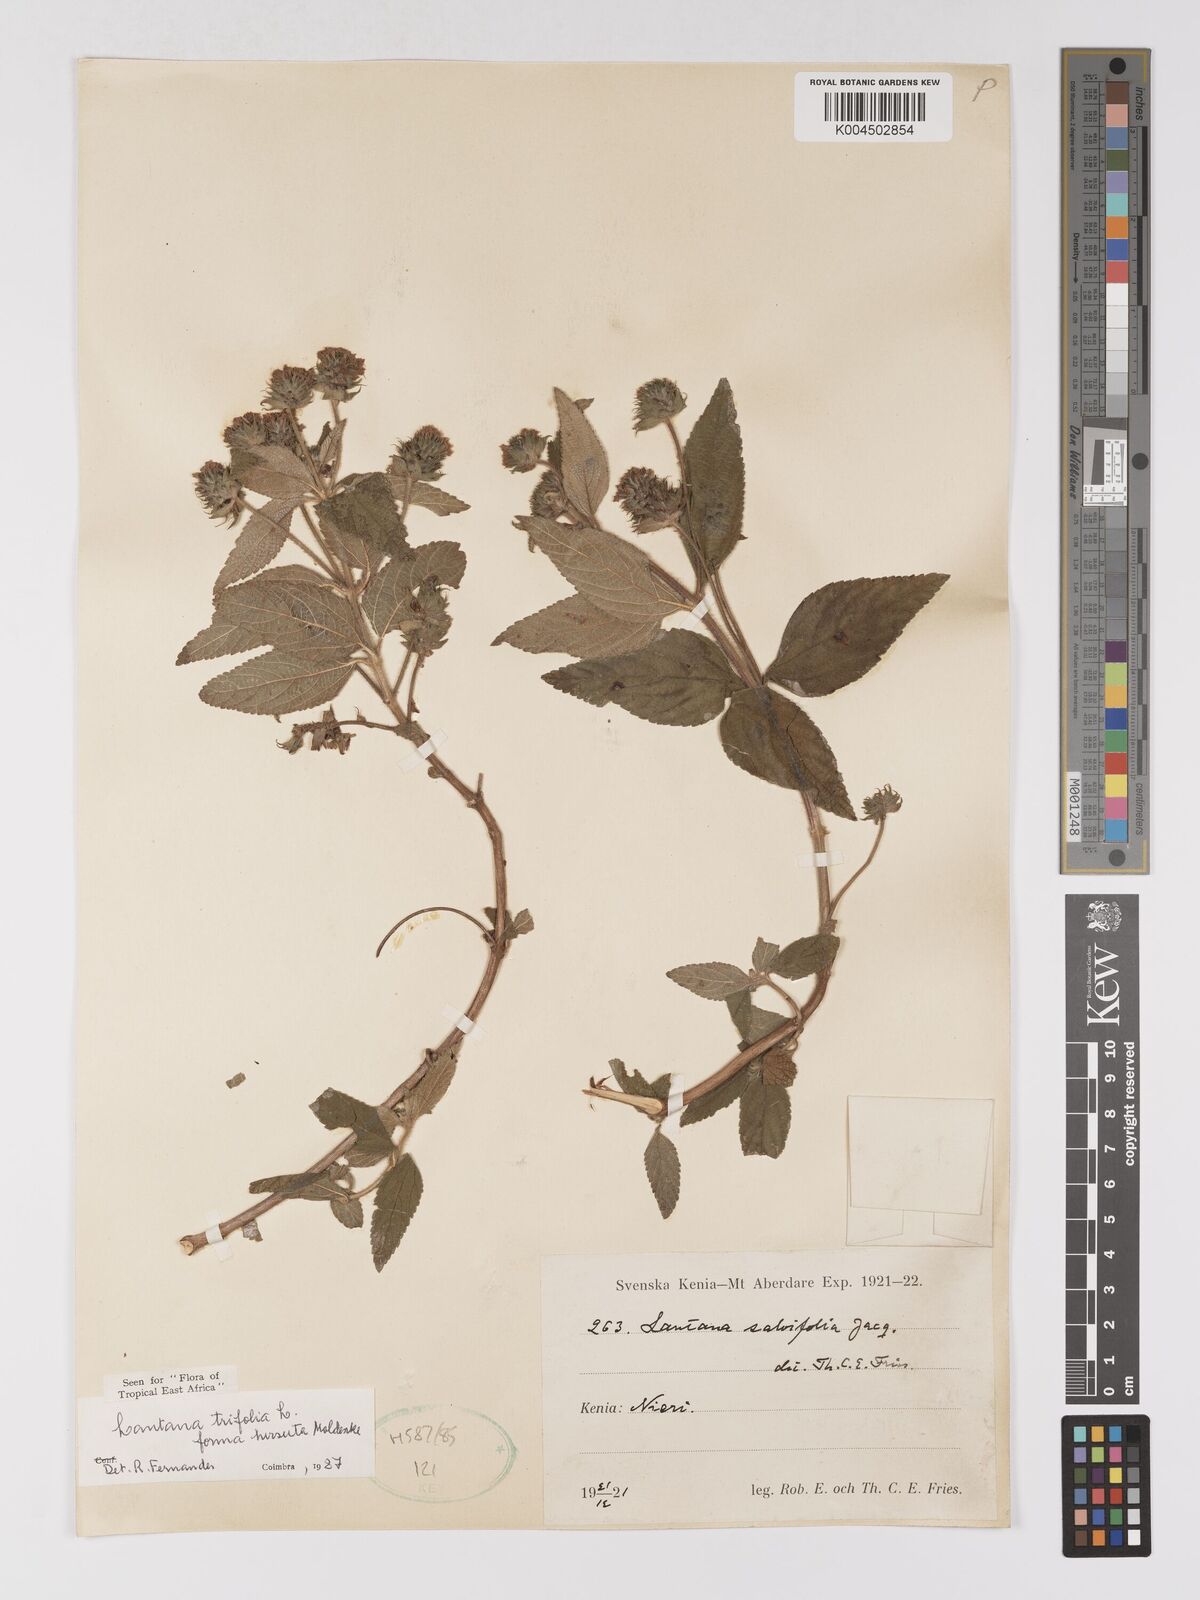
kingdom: Plantae
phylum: Tracheophyta
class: Magnoliopsida
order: Lamiales
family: Verbenaceae
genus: Lantana
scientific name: Lantana trifolia
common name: Sweet-sage
